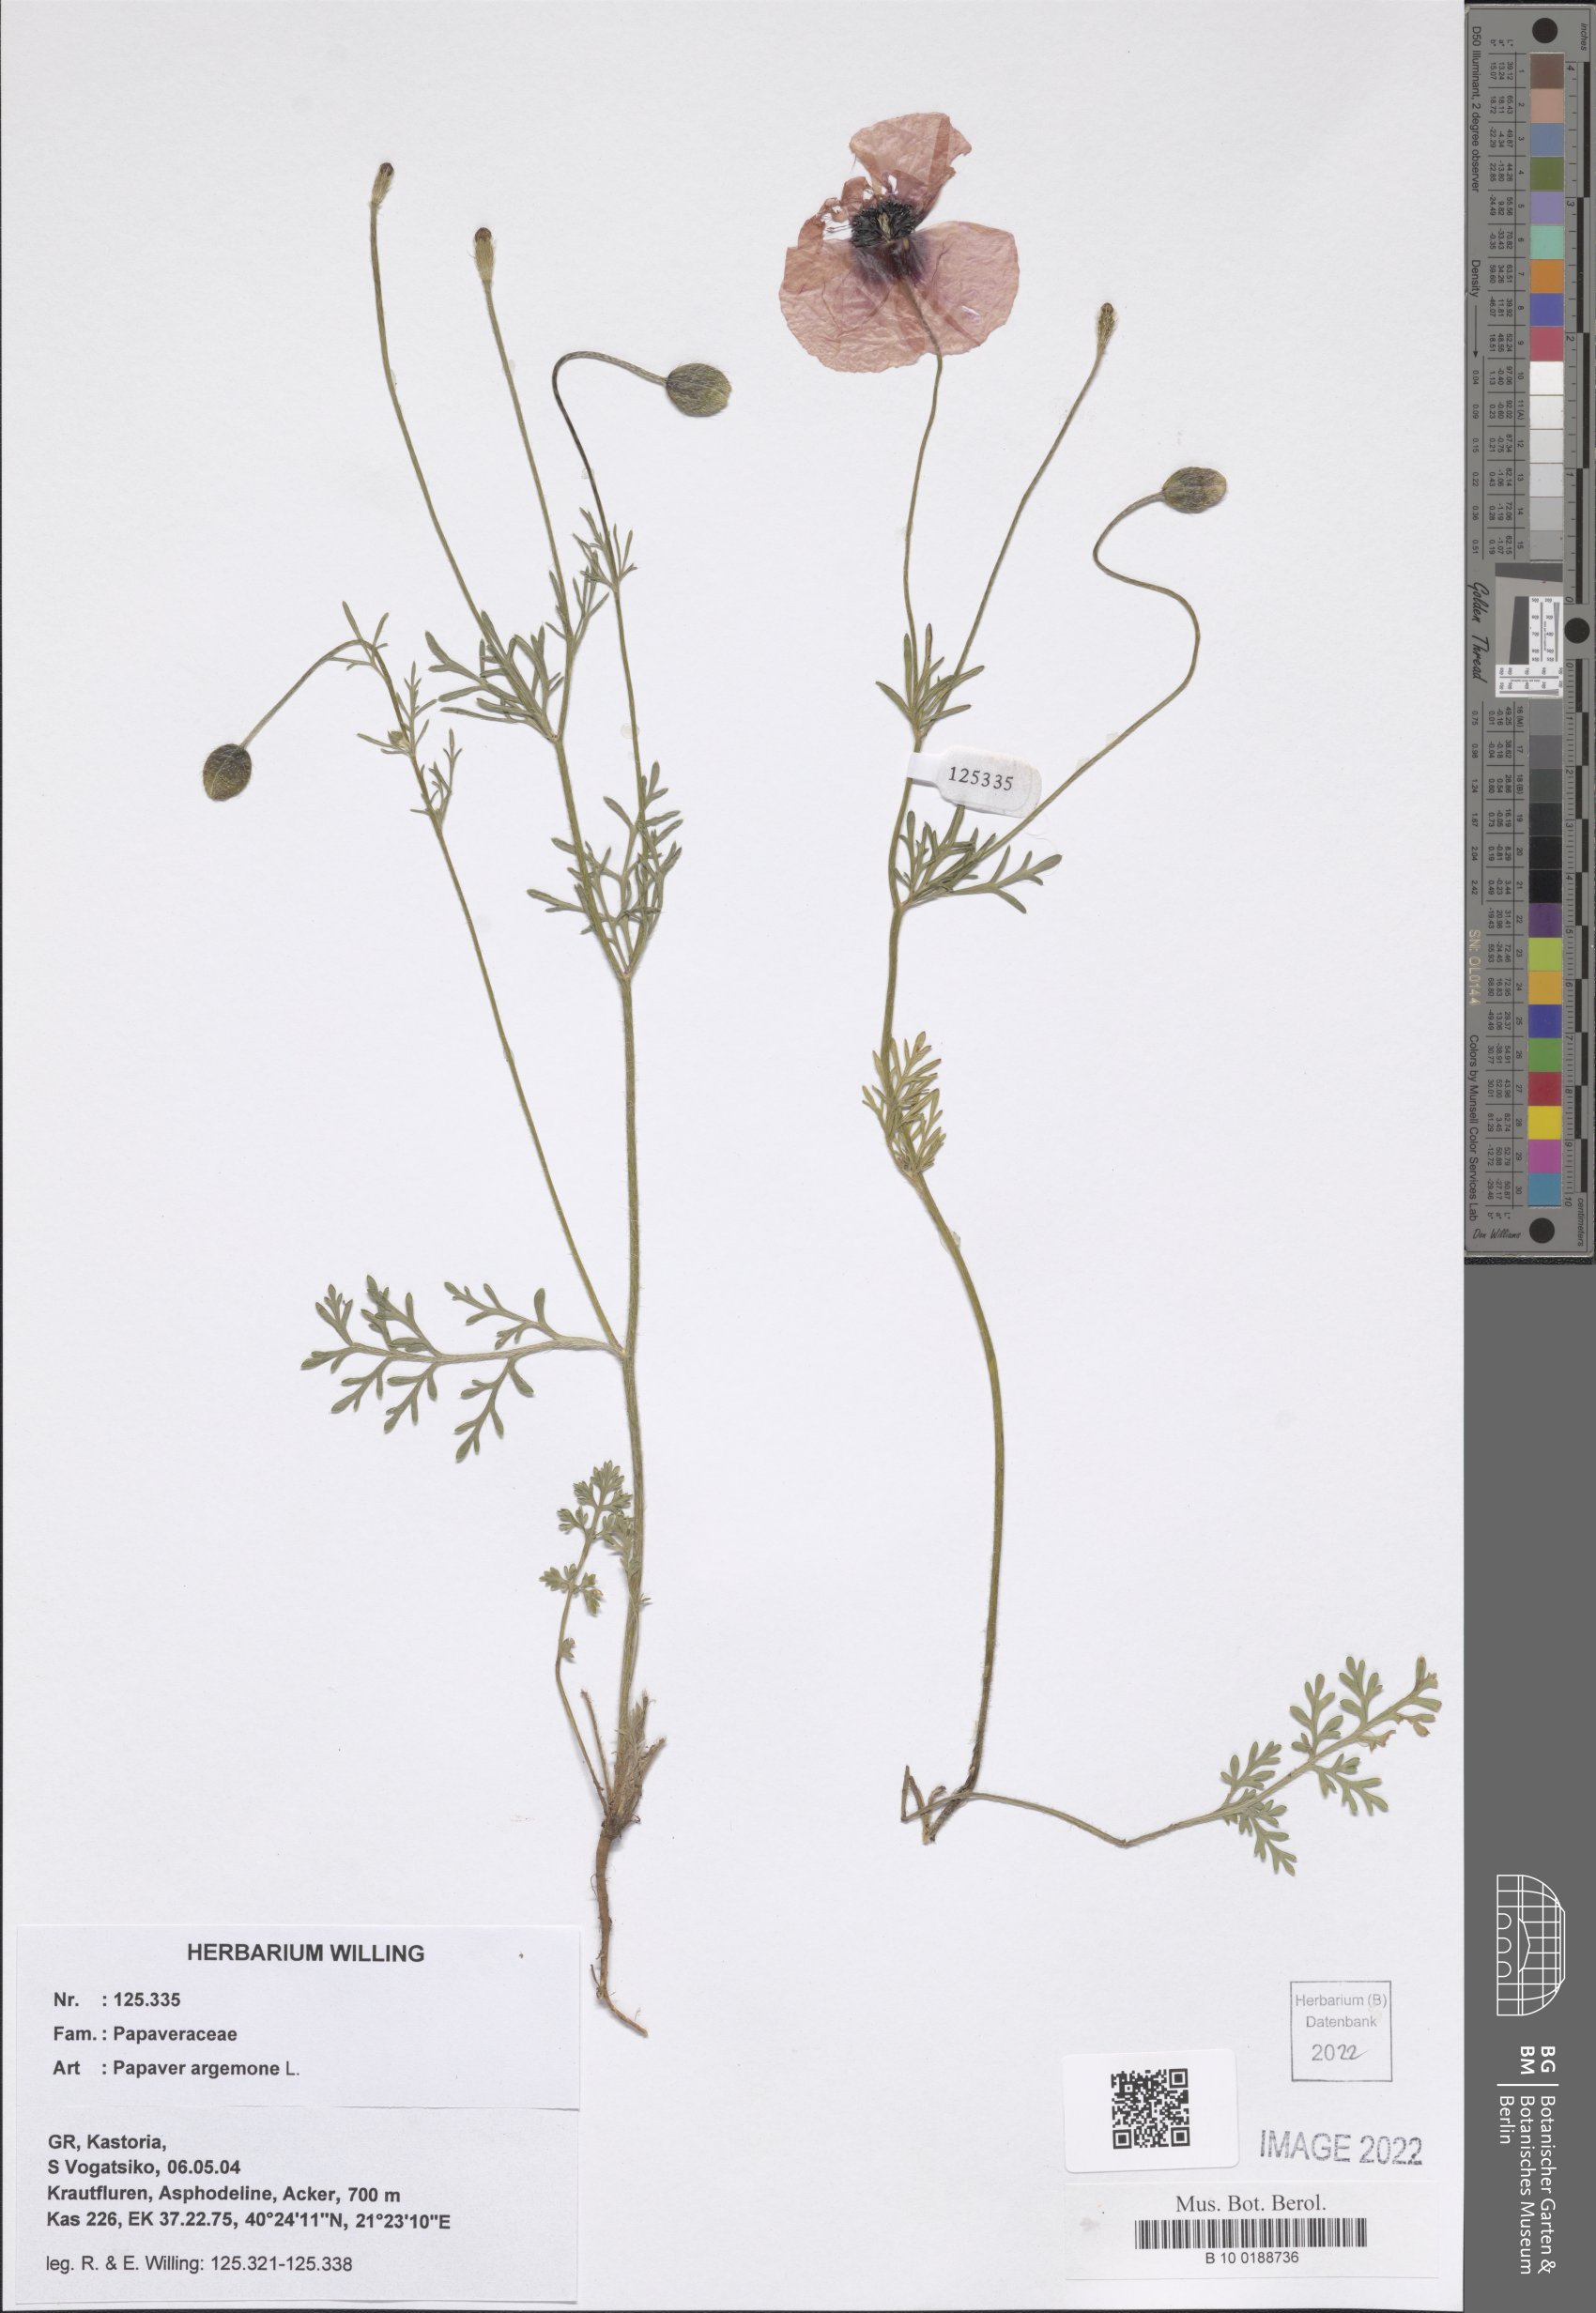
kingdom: Plantae
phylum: Tracheophyta
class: Magnoliopsida
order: Ranunculales
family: Papaveraceae
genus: Roemeria
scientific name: Roemeria argemone
